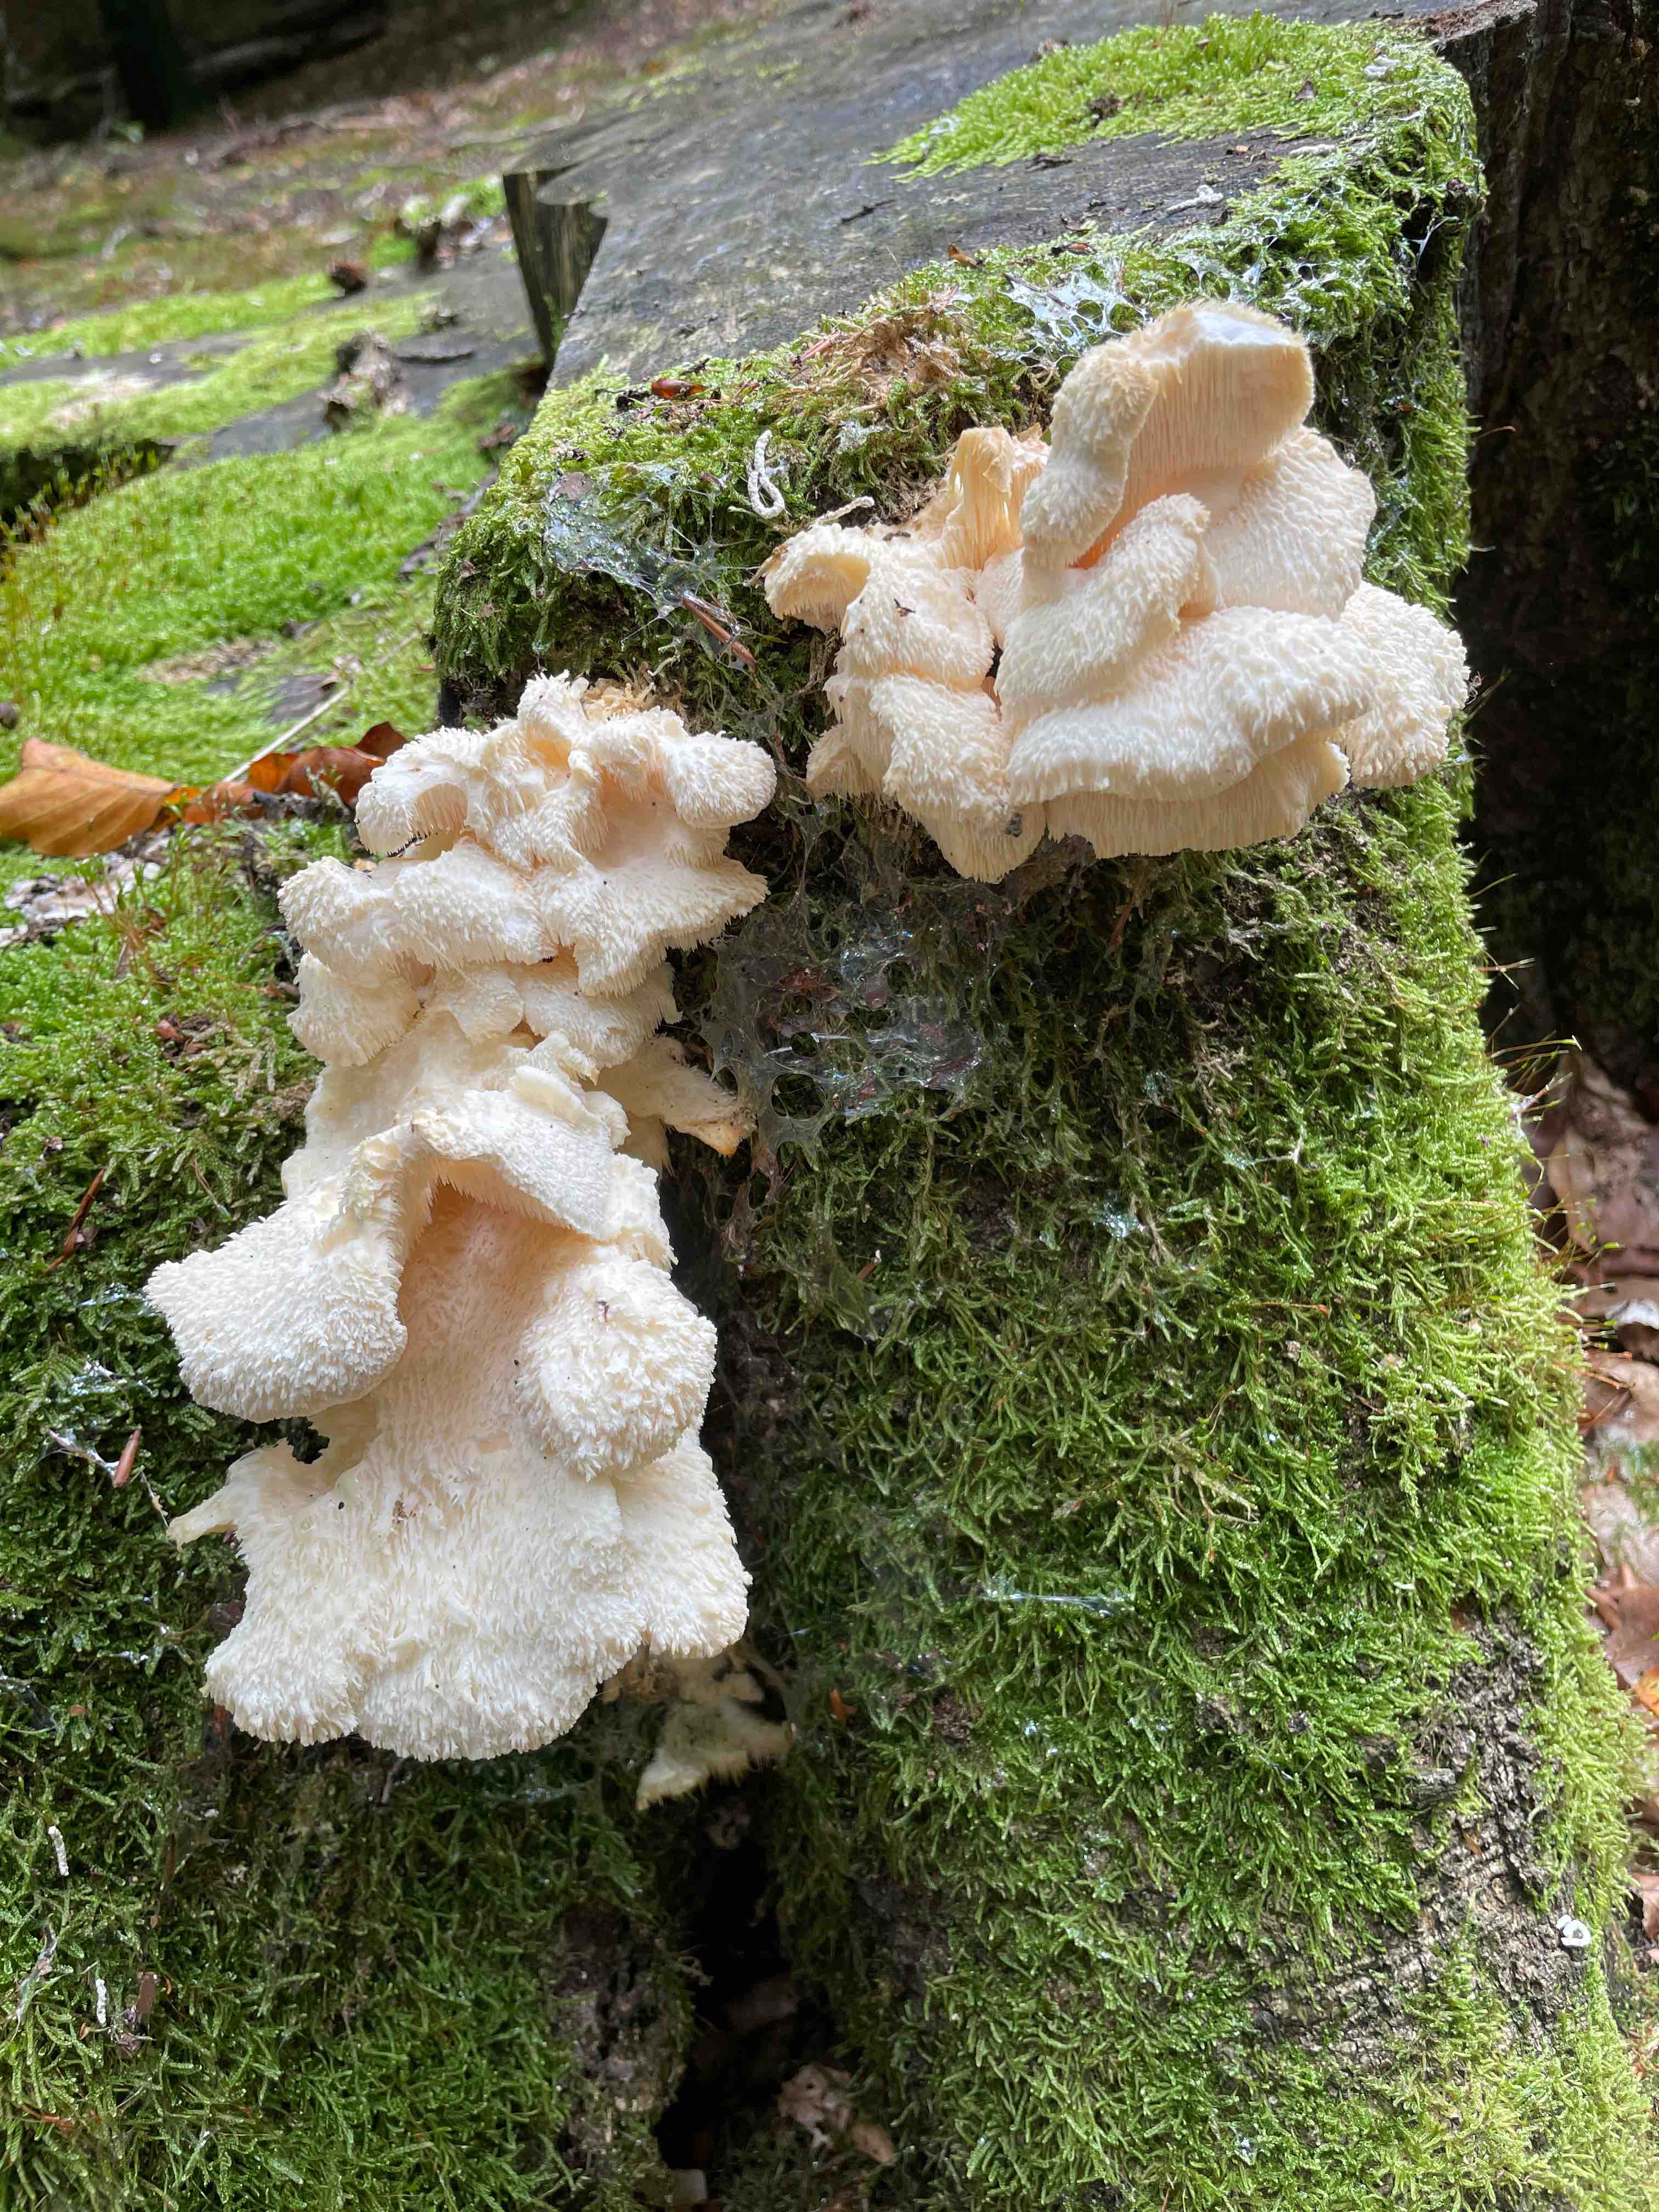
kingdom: Fungi
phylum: Basidiomycota
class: Agaricomycetes
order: Russulales
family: Hericiaceae
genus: Hericium
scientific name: Hericium cirrhatum
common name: børstepigsvamp
